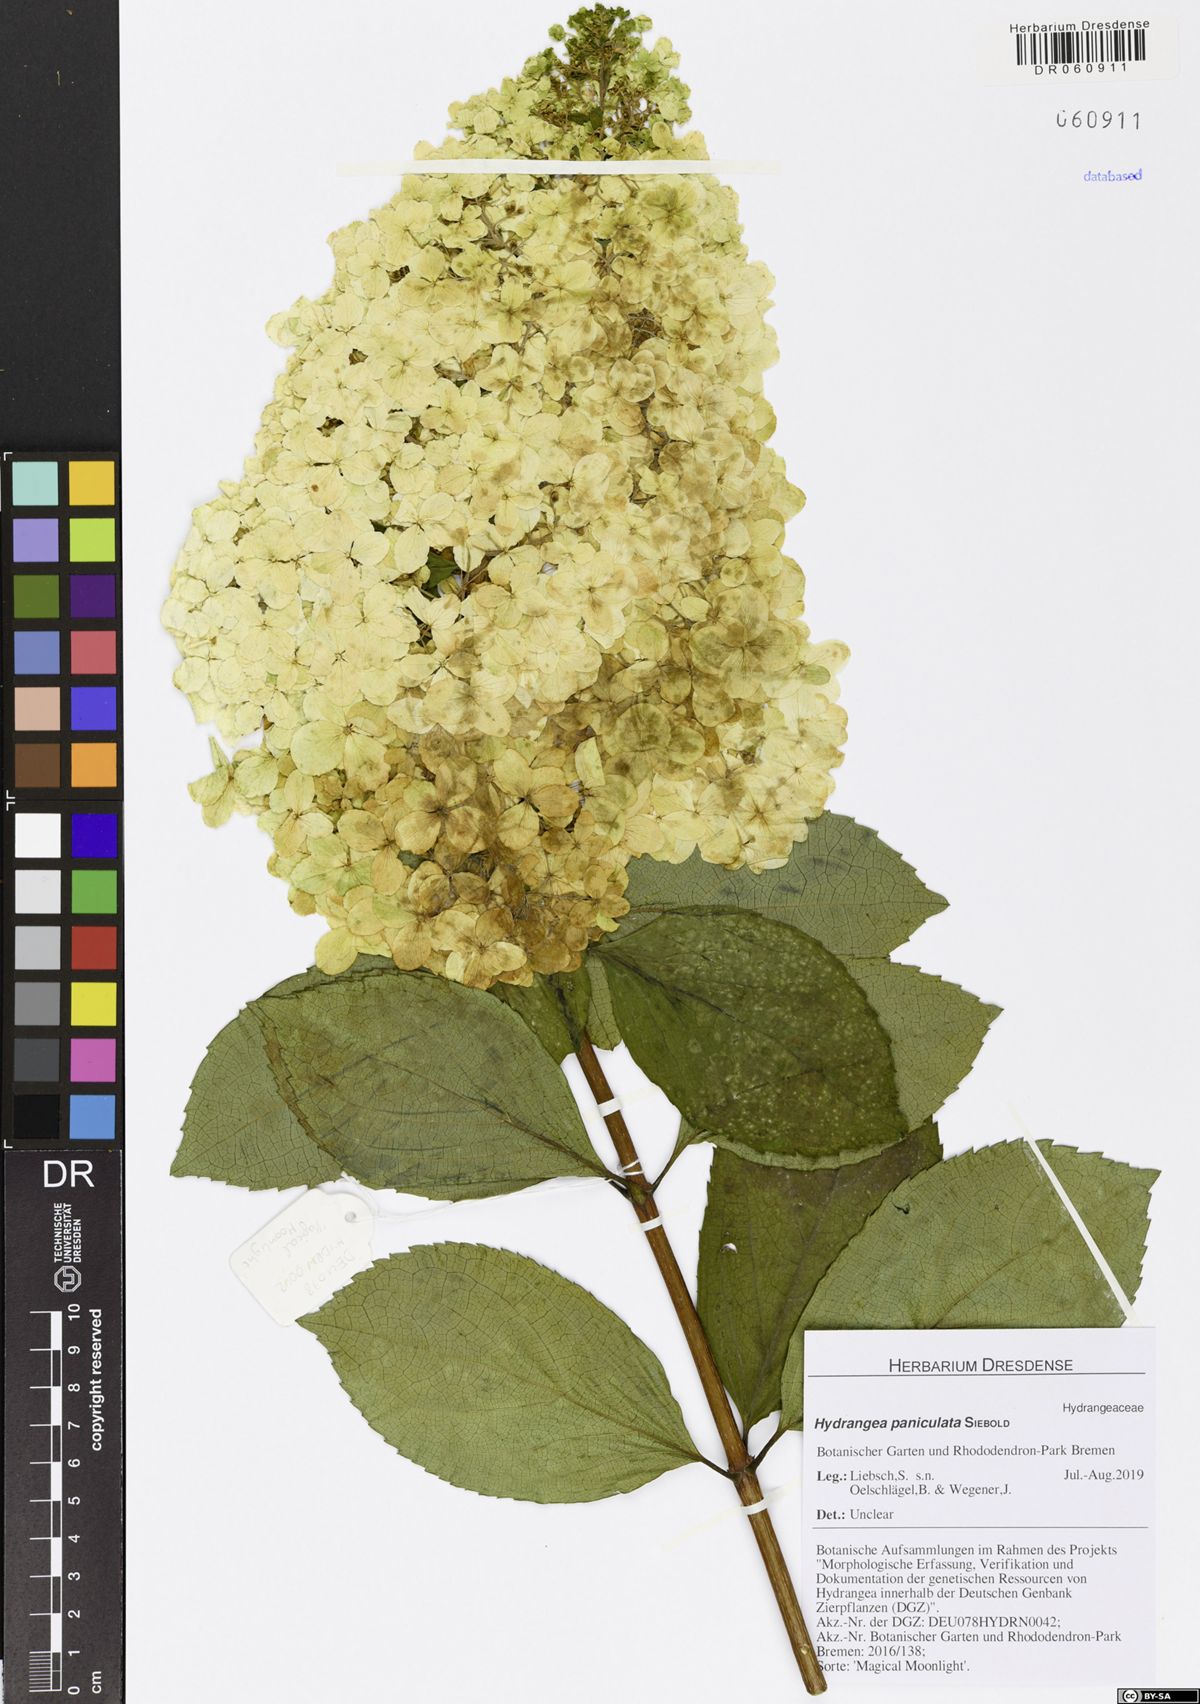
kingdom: Plantae
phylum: Tracheophyta
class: Magnoliopsida
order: Cornales
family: Hydrangeaceae
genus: Hydrangea
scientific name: Hydrangea paniculata
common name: Panicled hydrangea
